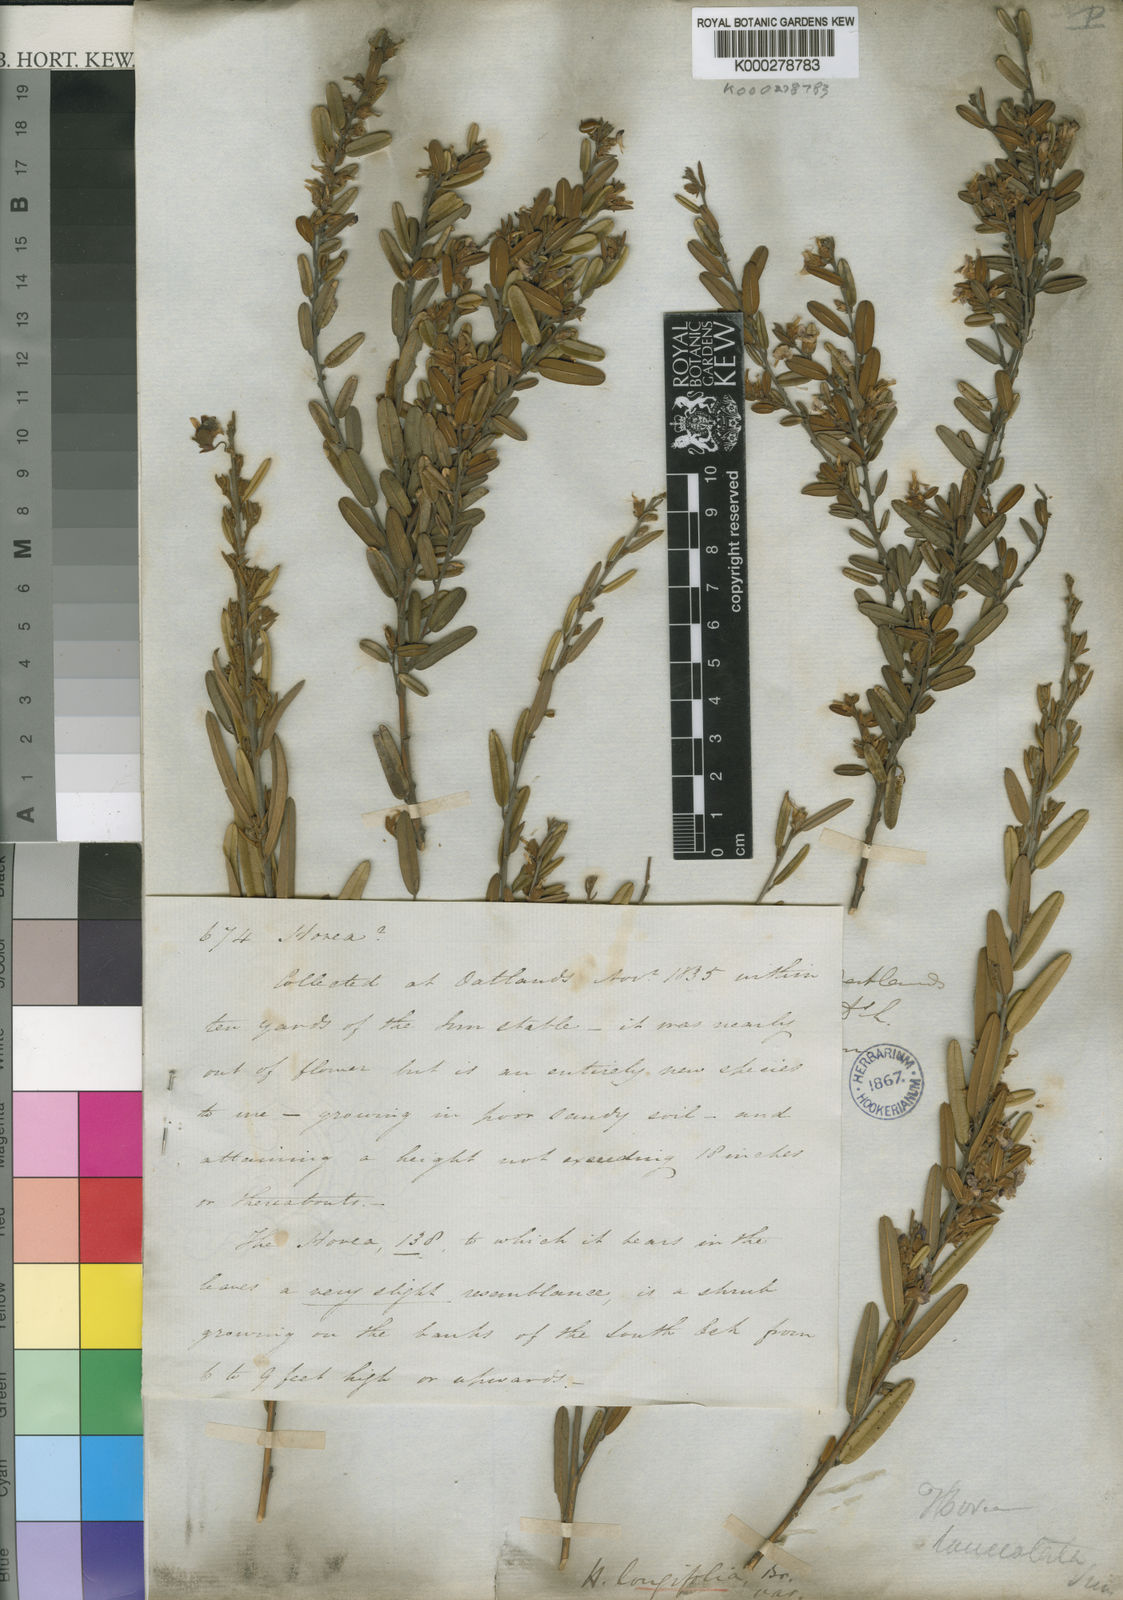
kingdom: Plantae
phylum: Tracheophyta
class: Magnoliopsida
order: Fabales
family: Fabaceae
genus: Hovea
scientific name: Hovea lanceolata
